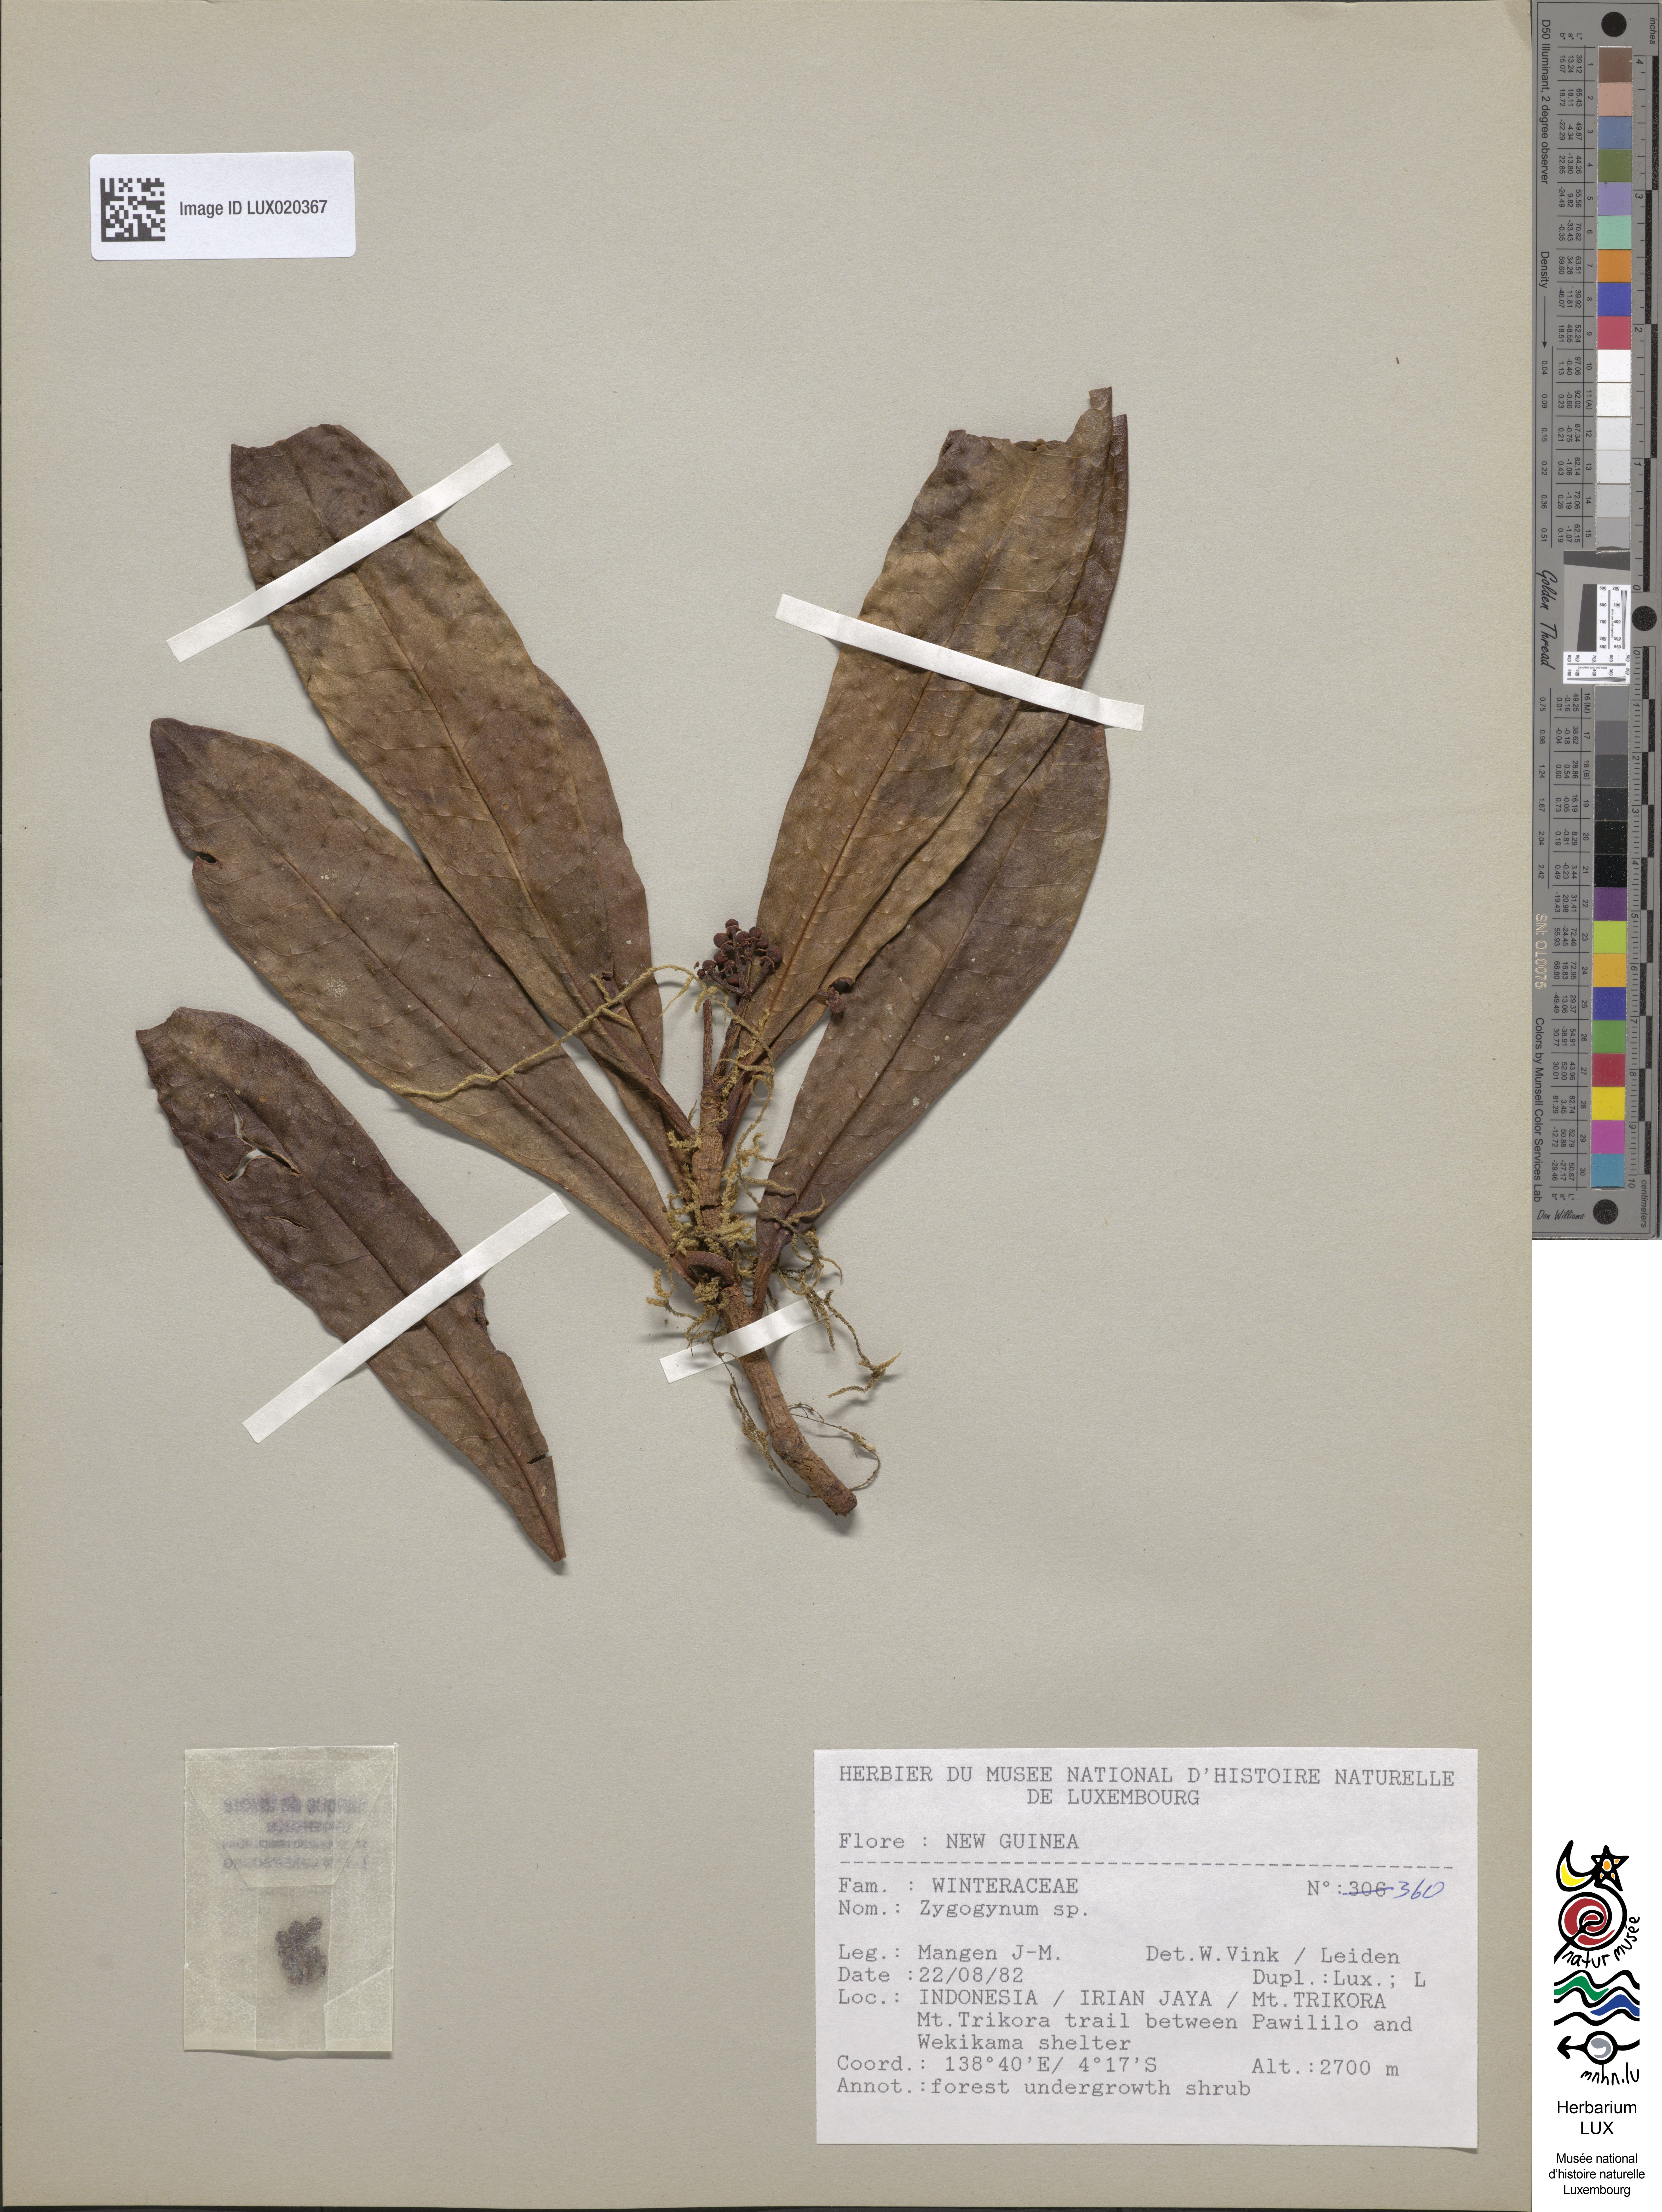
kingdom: Plantae
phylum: Tracheophyta
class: Magnoliopsida
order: Canellales
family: Winteraceae
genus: Zygogynum
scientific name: Zygogynum
